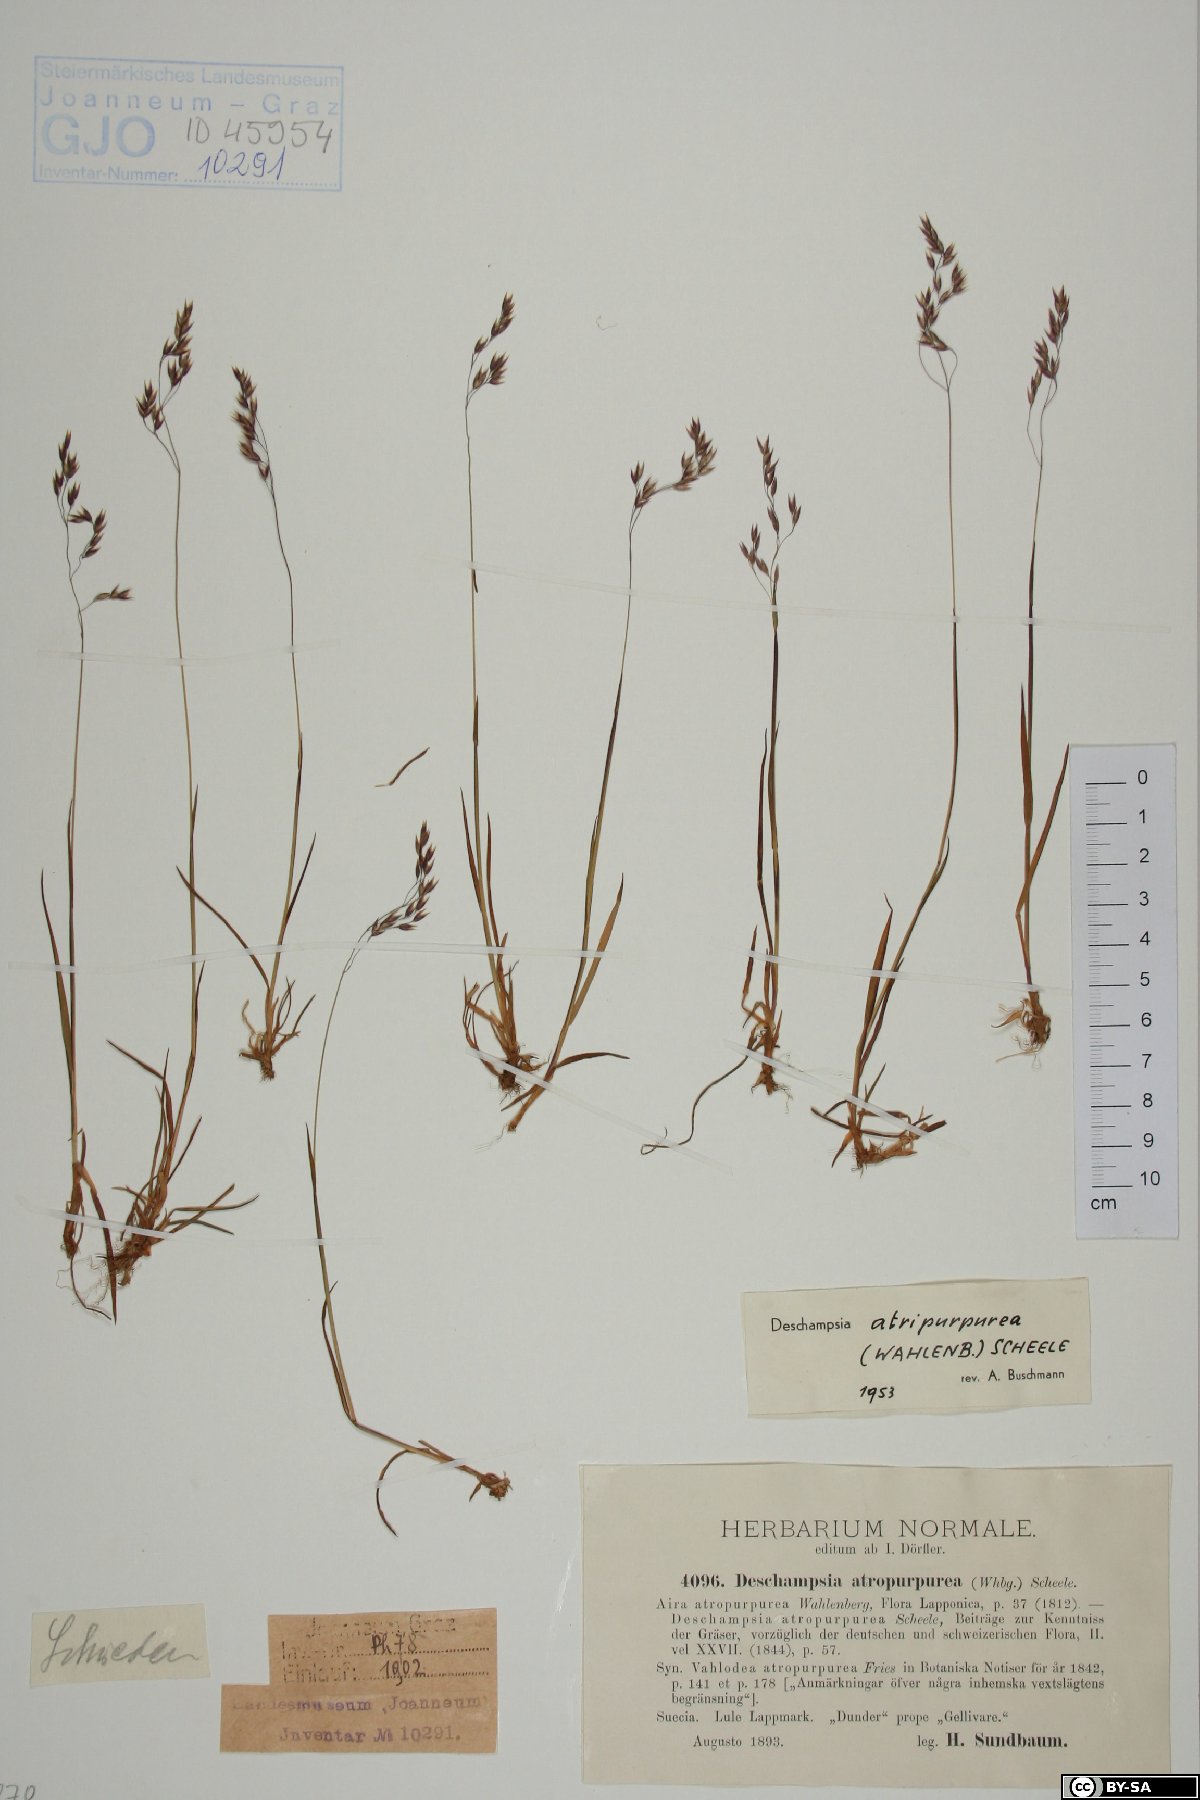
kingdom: Plantae
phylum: Tracheophyta
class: Liliopsida
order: Poales
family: Poaceae
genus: Vahlodea
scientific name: Vahlodea atropurpurea
